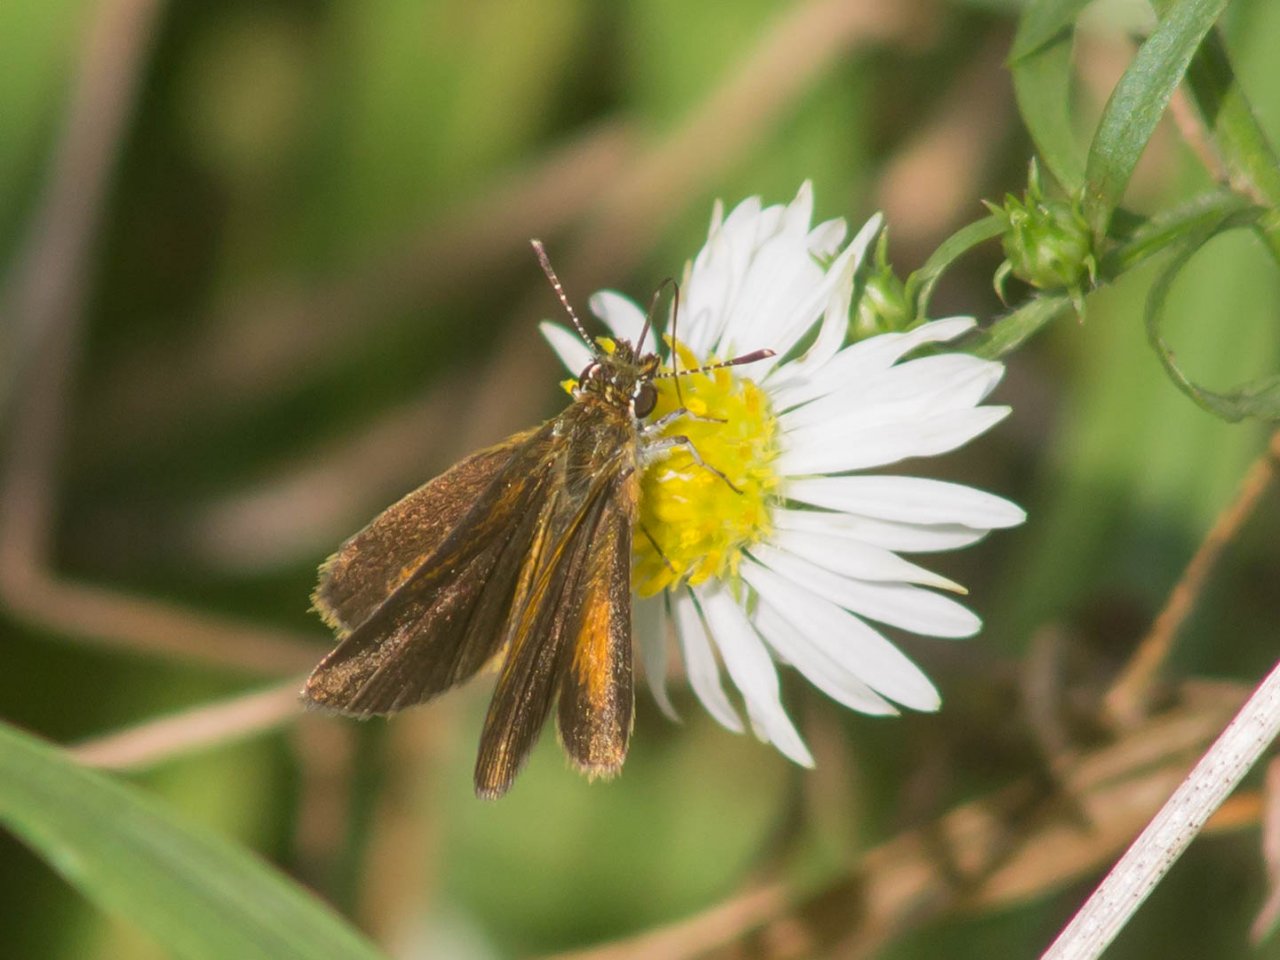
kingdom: Animalia
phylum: Arthropoda
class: Insecta
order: Lepidoptera
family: Hesperiidae
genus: Ancyloxypha
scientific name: Ancyloxypha numitor
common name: Least Skipper
